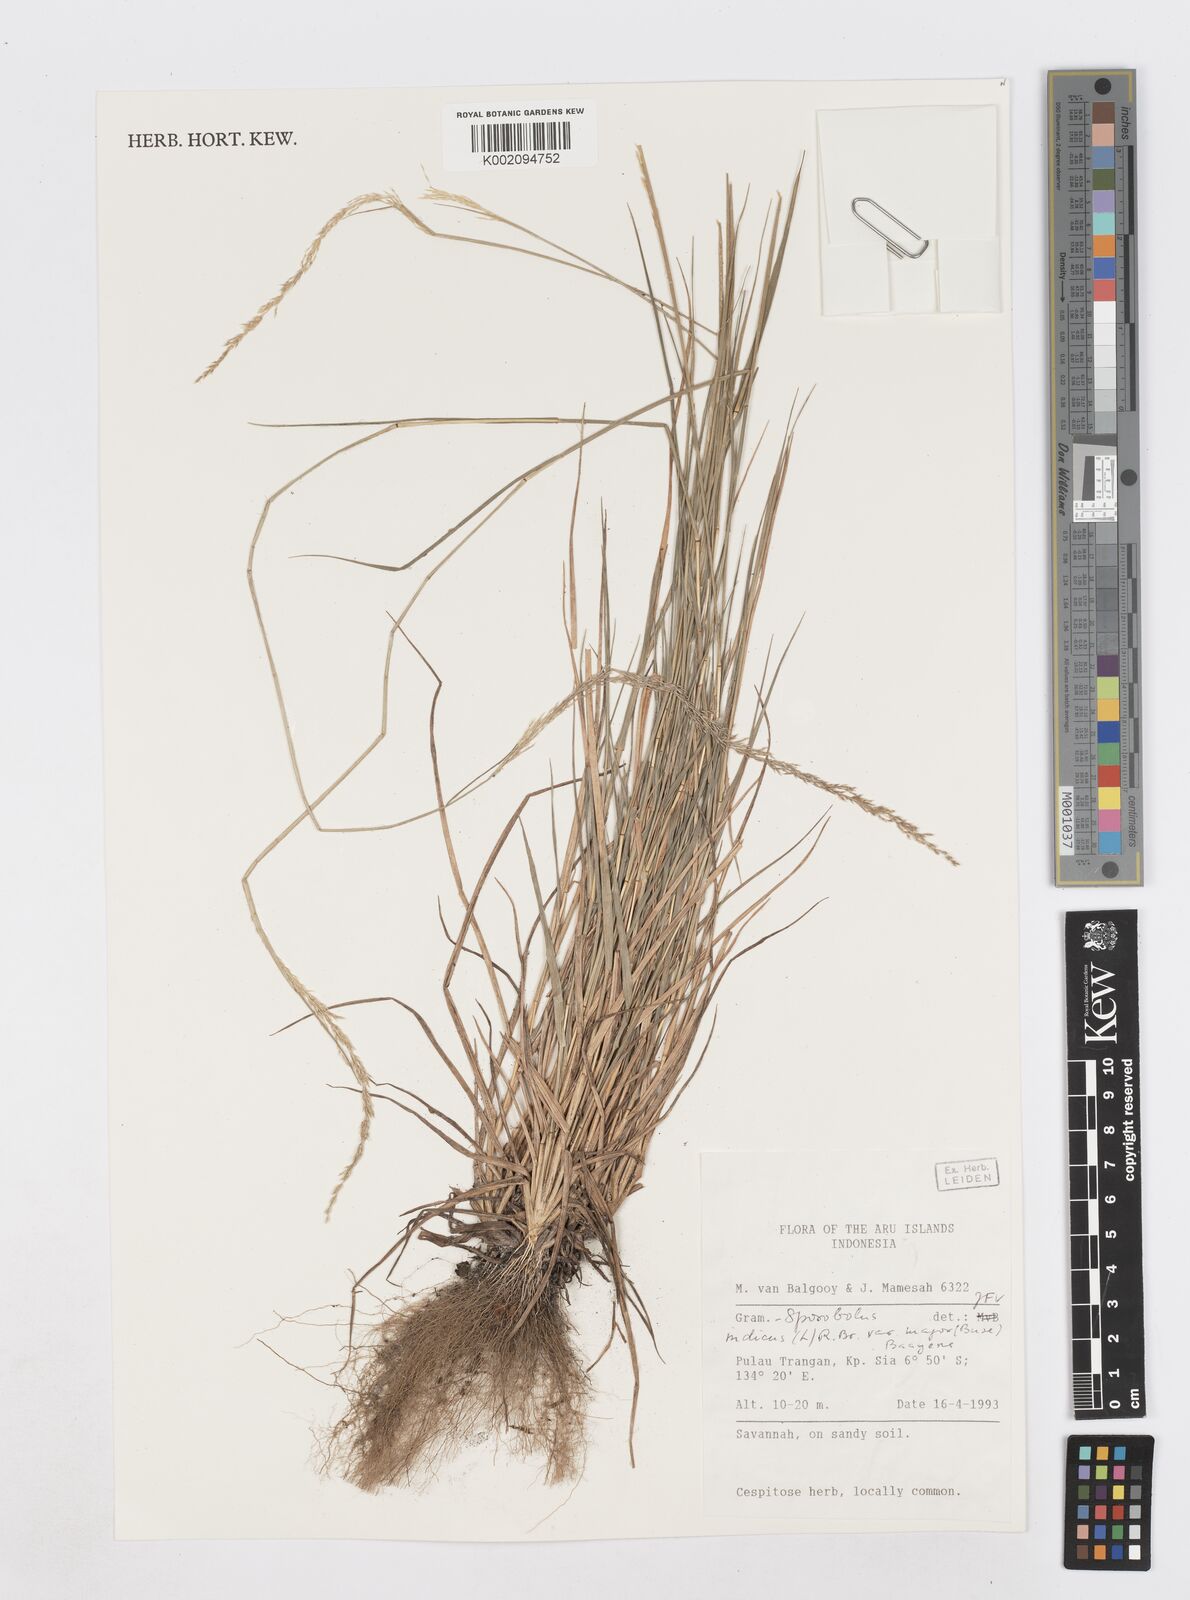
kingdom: Plantae
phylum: Tracheophyta
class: Liliopsida
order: Poales
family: Poaceae
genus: Sporobolus
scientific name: Sporobolus fertilis
